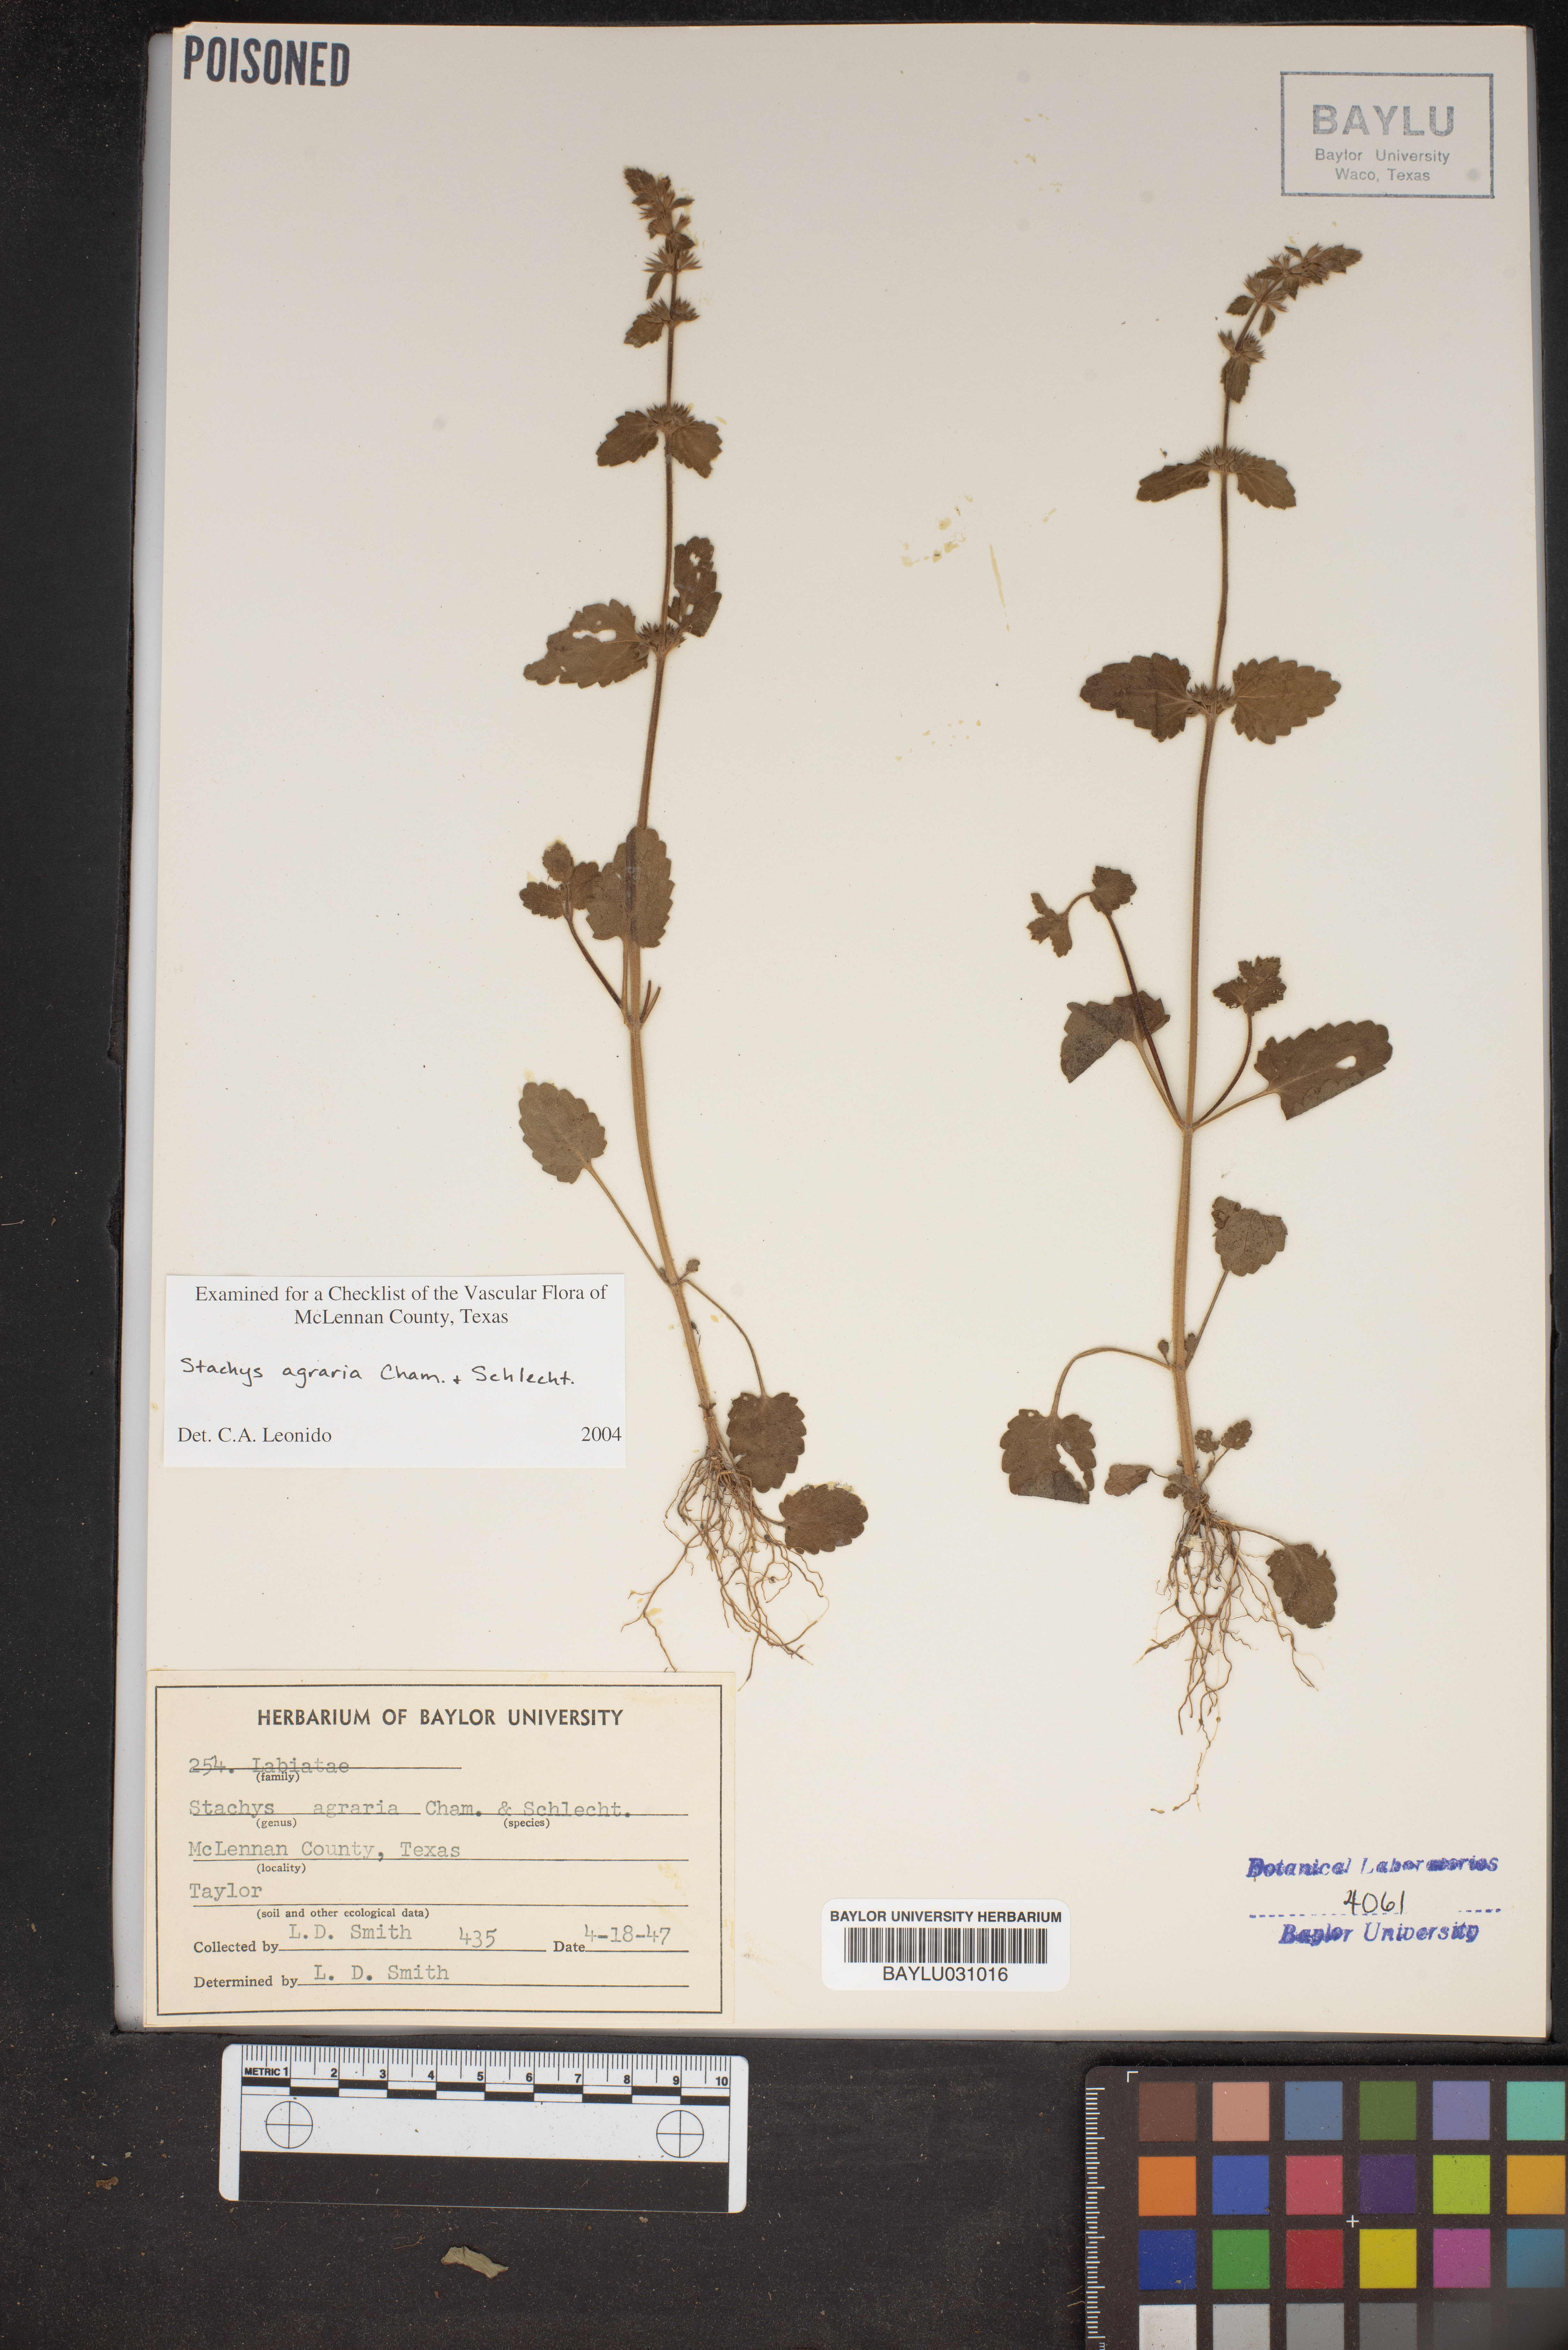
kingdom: Plantae
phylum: Tracheophyta
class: Magnoliopsida
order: Lamiales
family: Lamiaceae
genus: Stachys
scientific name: Stachys agraria
